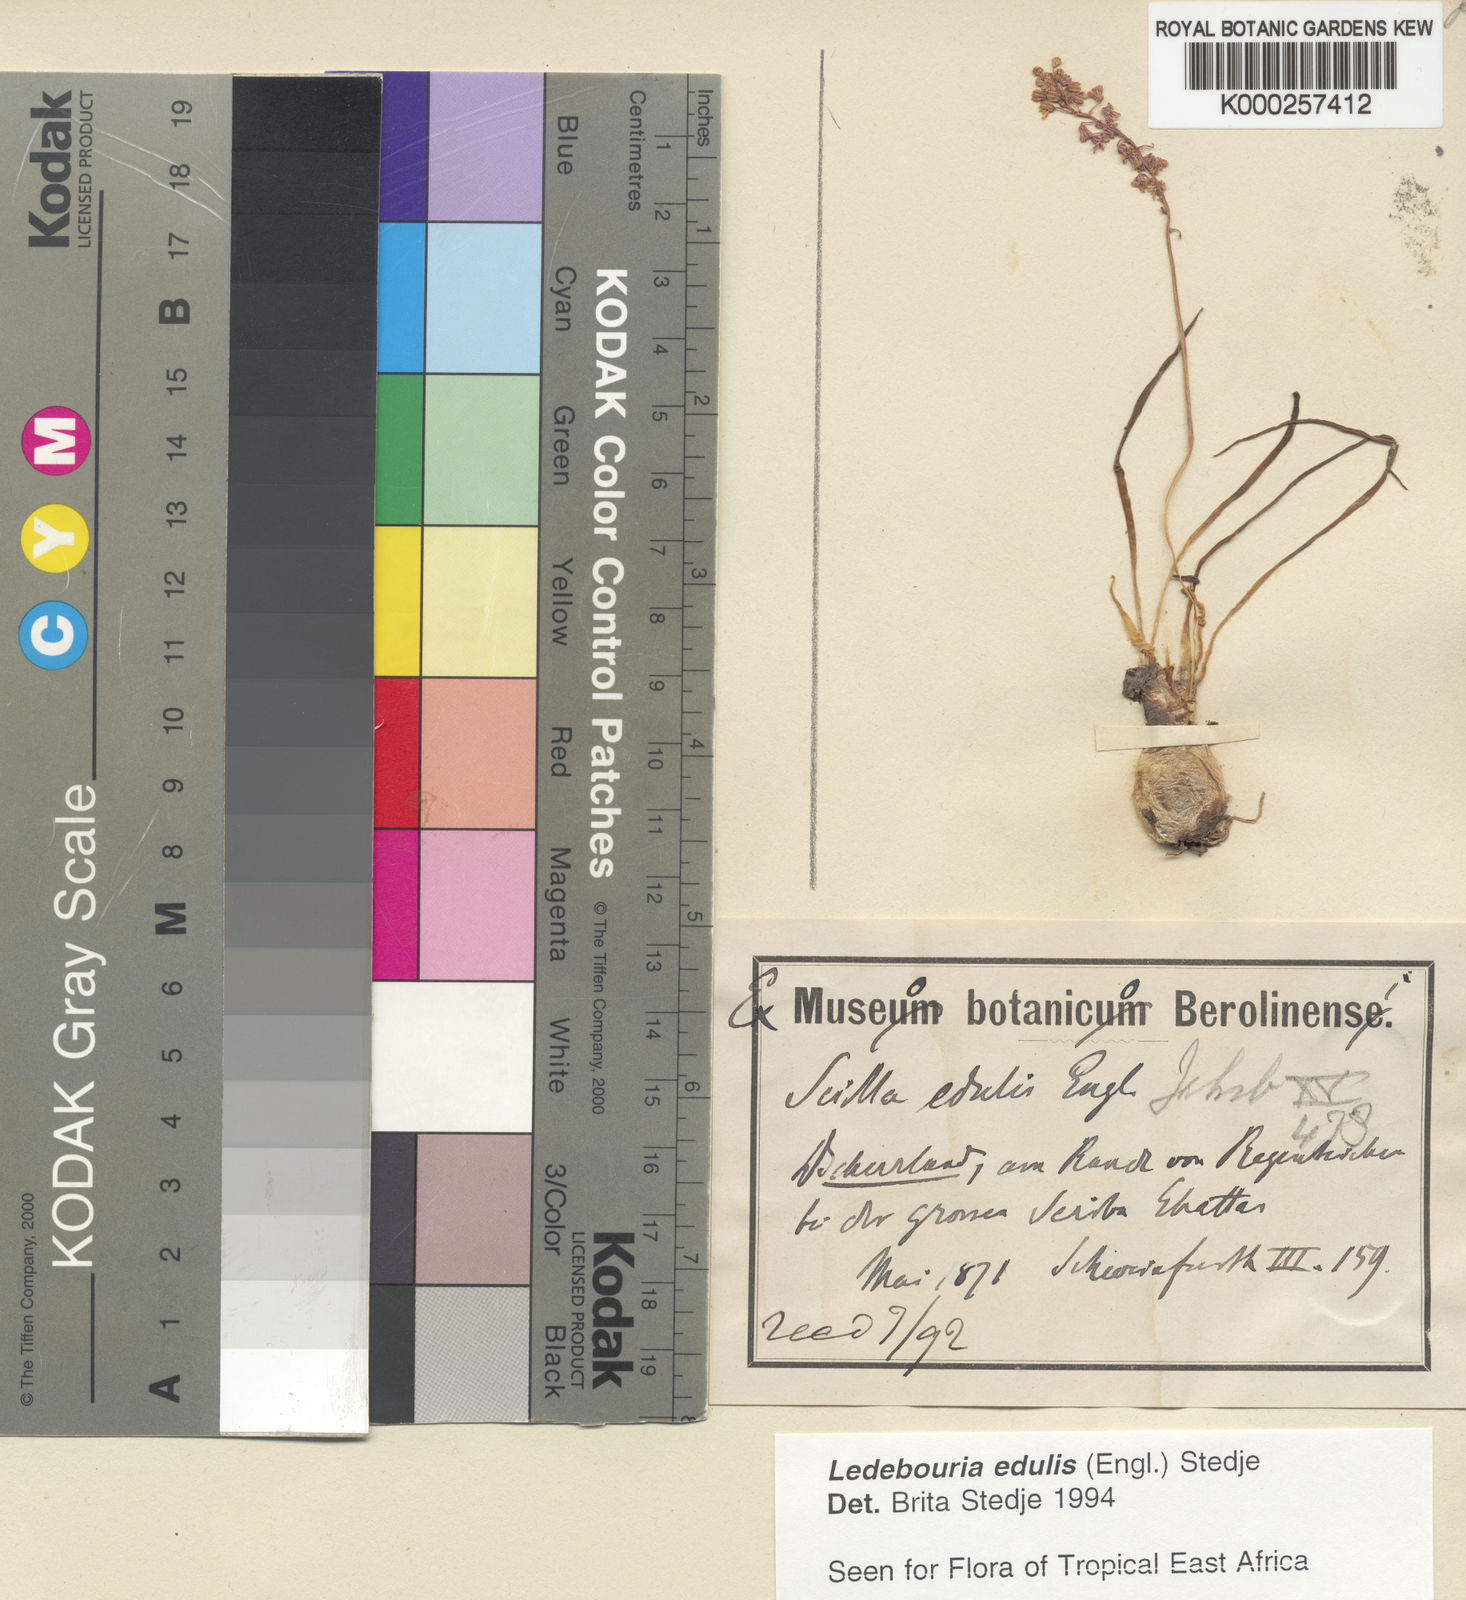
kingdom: Plantae
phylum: Tracheophyta
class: Liliopsida
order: Asparagales
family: Asparagaceae
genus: Ledebouria
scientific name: Ledebouria edulis
